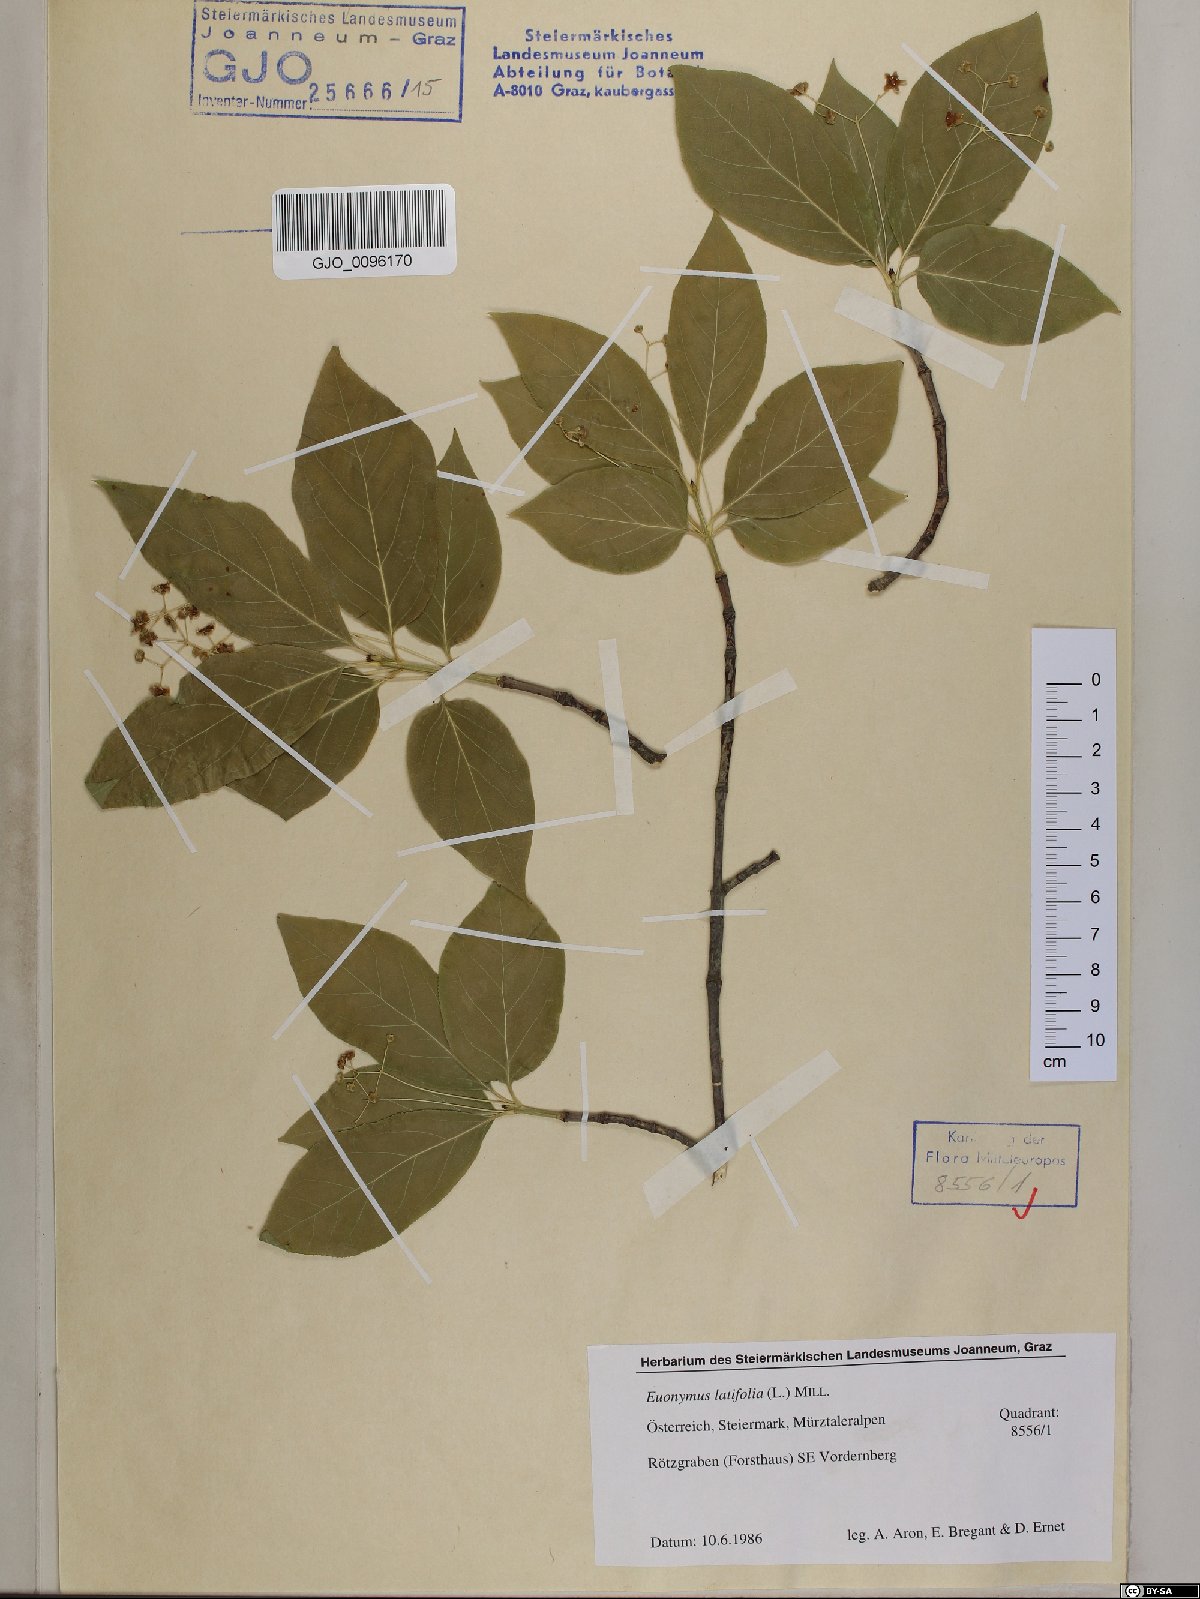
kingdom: Plantae
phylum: Tracheophyta
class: Magnoliopsida
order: Celastrales
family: Celastraceae
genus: Euonymus
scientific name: Euonymus latifolius
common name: Large-leaved spindle
